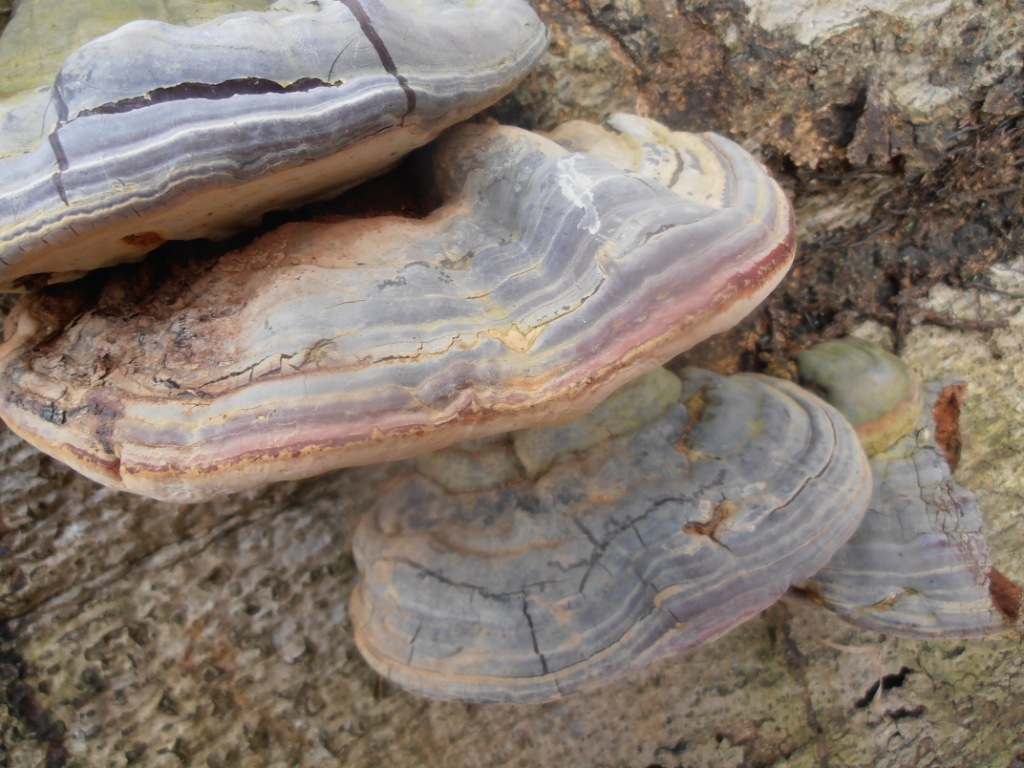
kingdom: Fungi
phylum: Basidiomycota
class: Agaricomycetes
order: Polyporales
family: Polyporaceae
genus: Ganoderma
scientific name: Ganoderma pfeifferi
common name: kobberrød lakporesvamp
